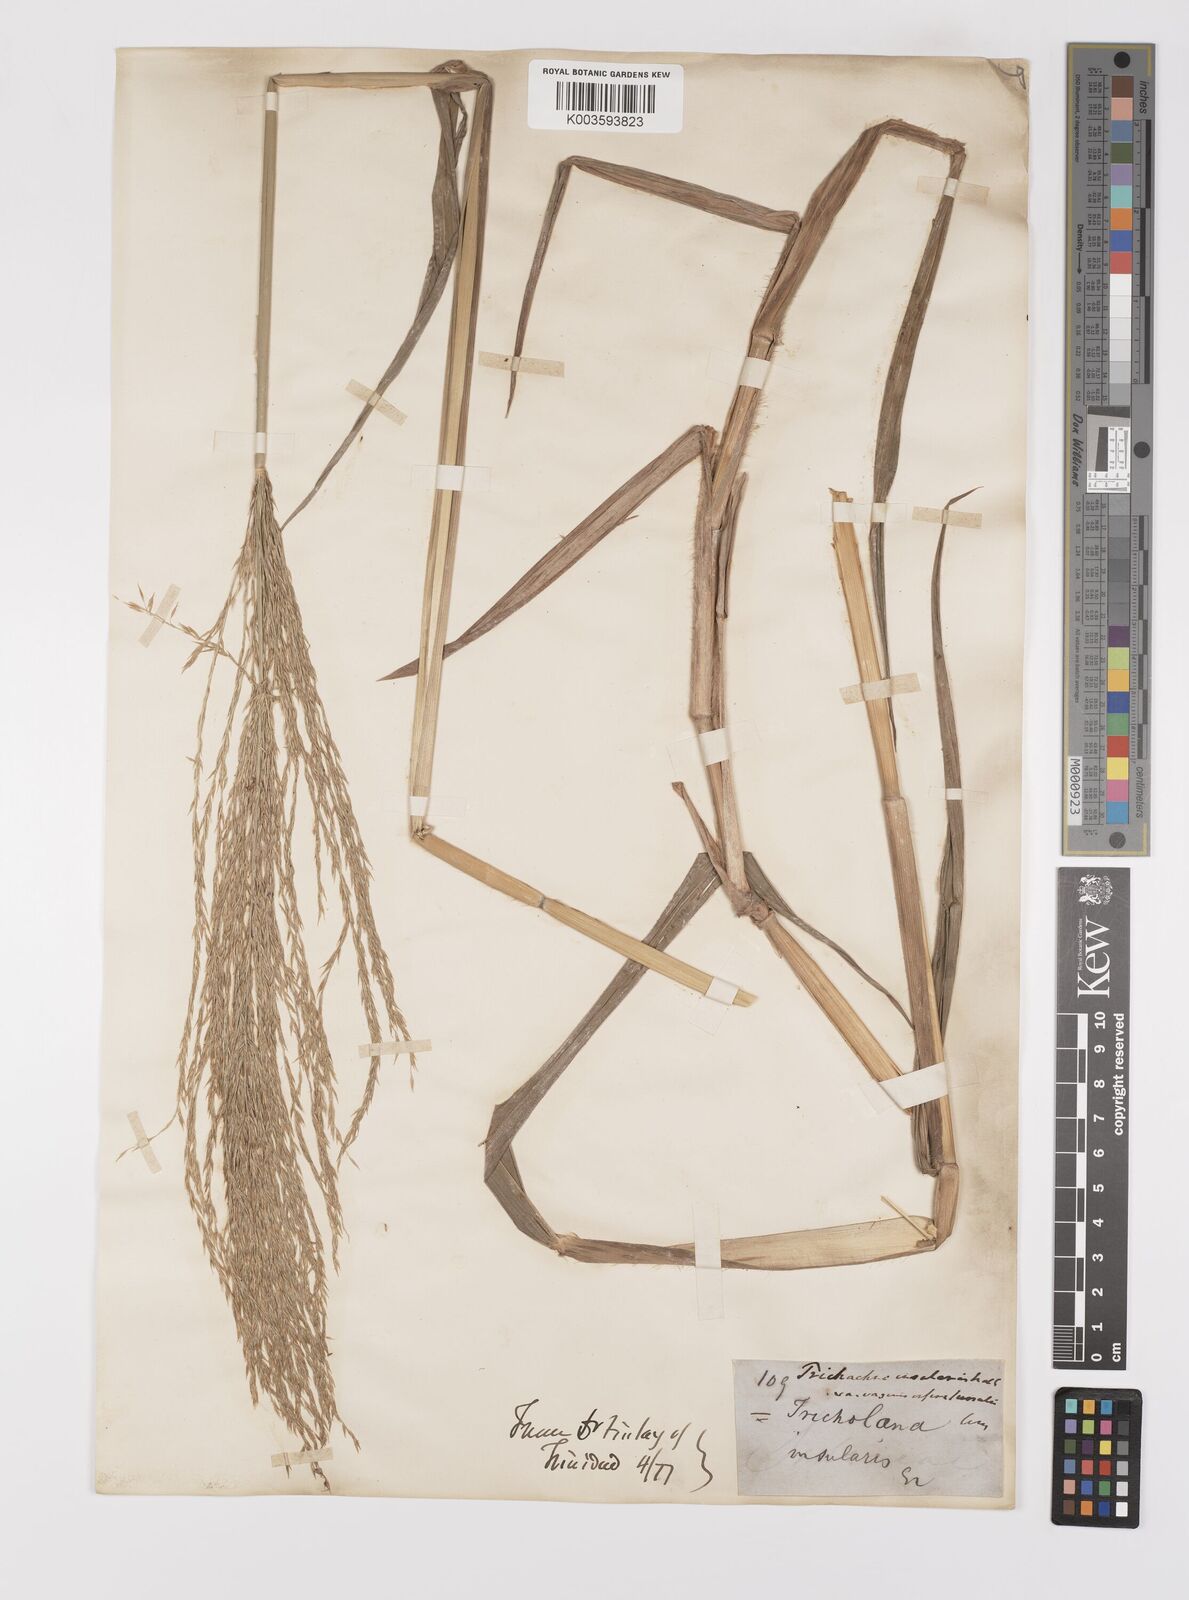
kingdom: Plantae
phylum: Tracheophyta
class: Liliopsida
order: Poales
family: Poaceae
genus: Digitaria
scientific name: Digitaria laxa
